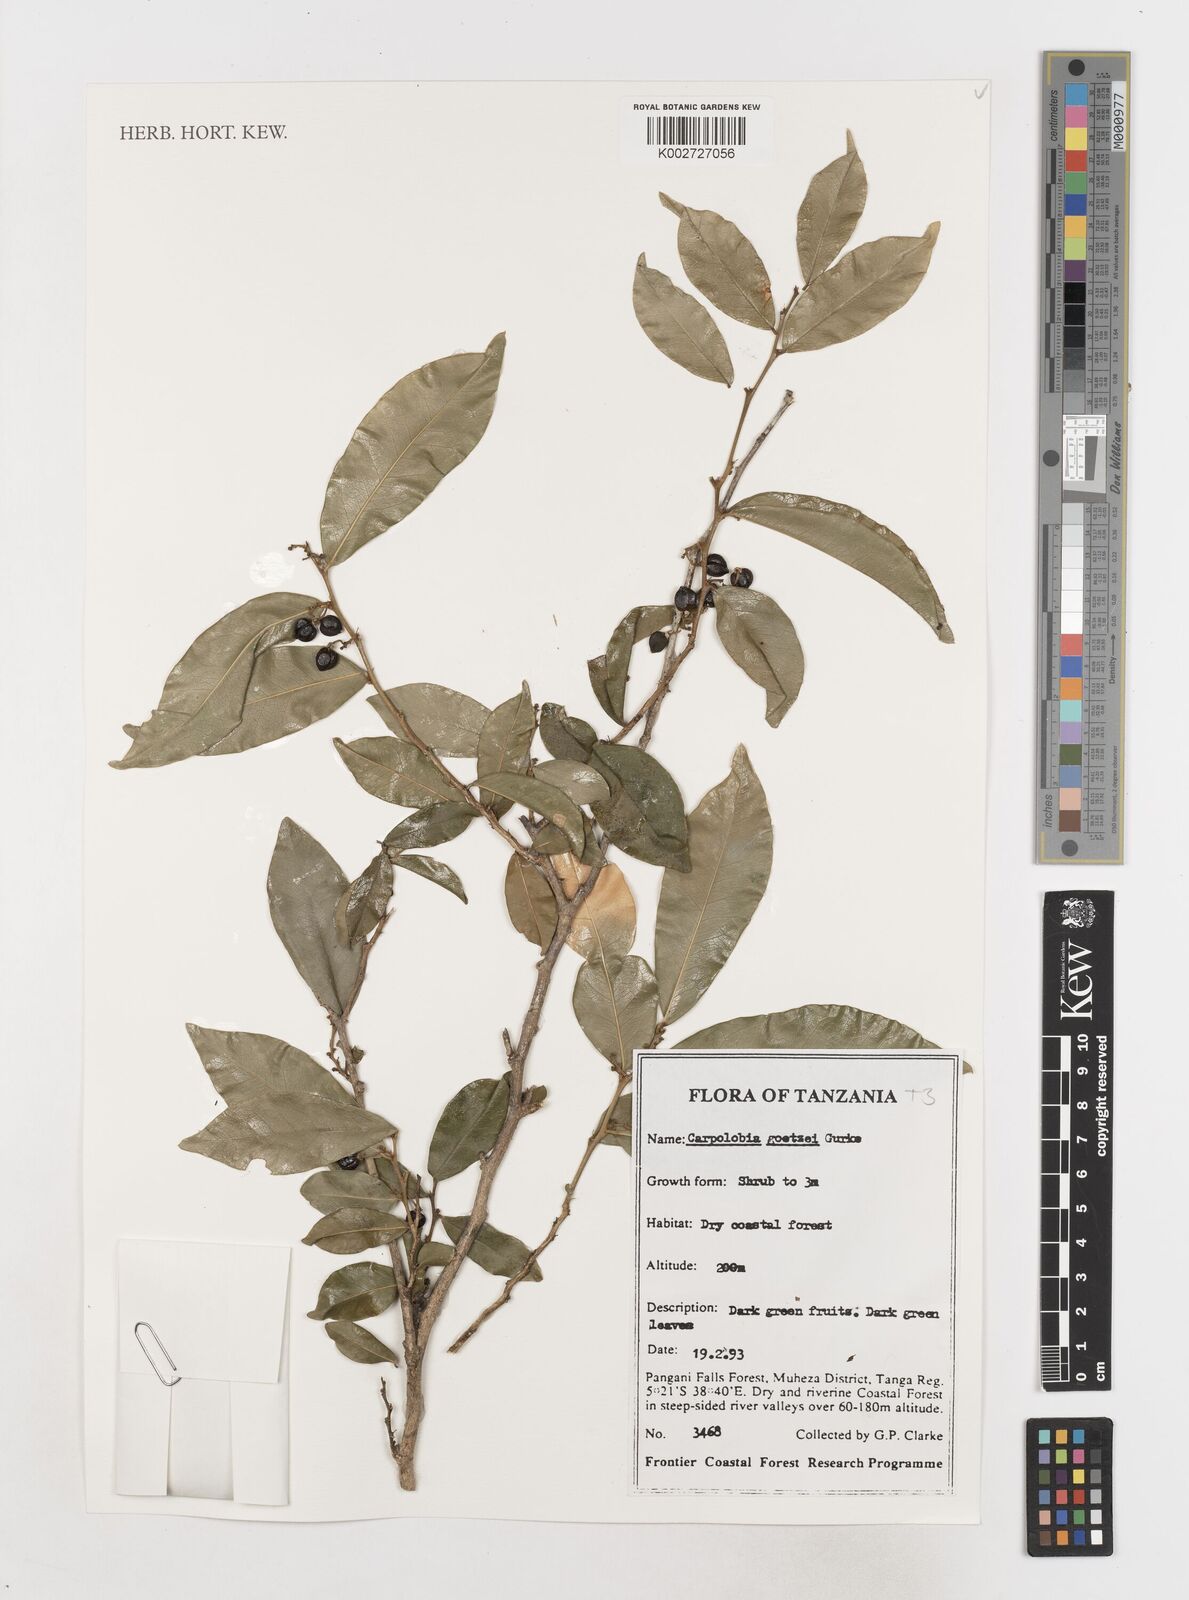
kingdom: Plantae
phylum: Tracheophyta
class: Magnoliopsida
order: Fabales
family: Polygalaceae
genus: Carpolobia
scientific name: Carpolobia goetzei
